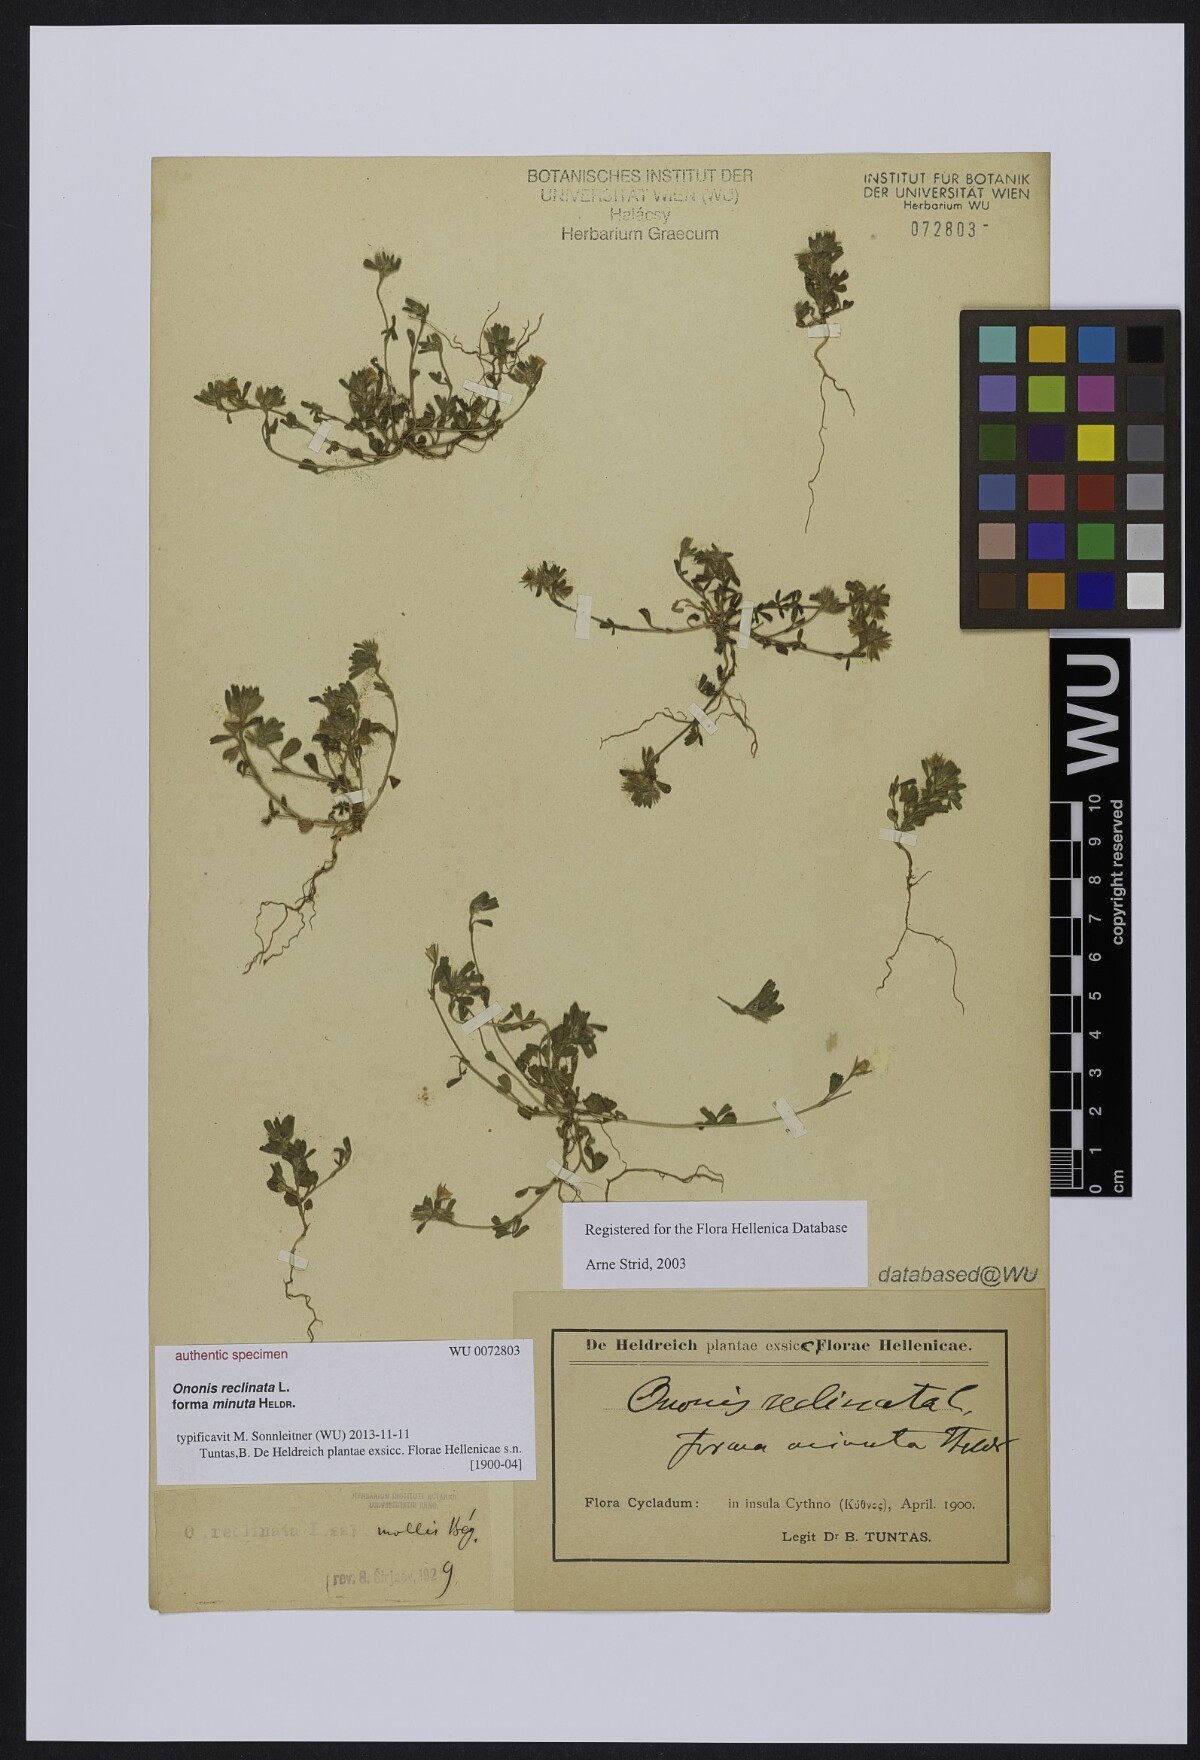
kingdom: Plantae
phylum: Tracheophyta
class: Magnoliopsida
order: Fabales
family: Fabaceae
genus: Ononis
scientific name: Ononis reclinata
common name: Small restharrow
